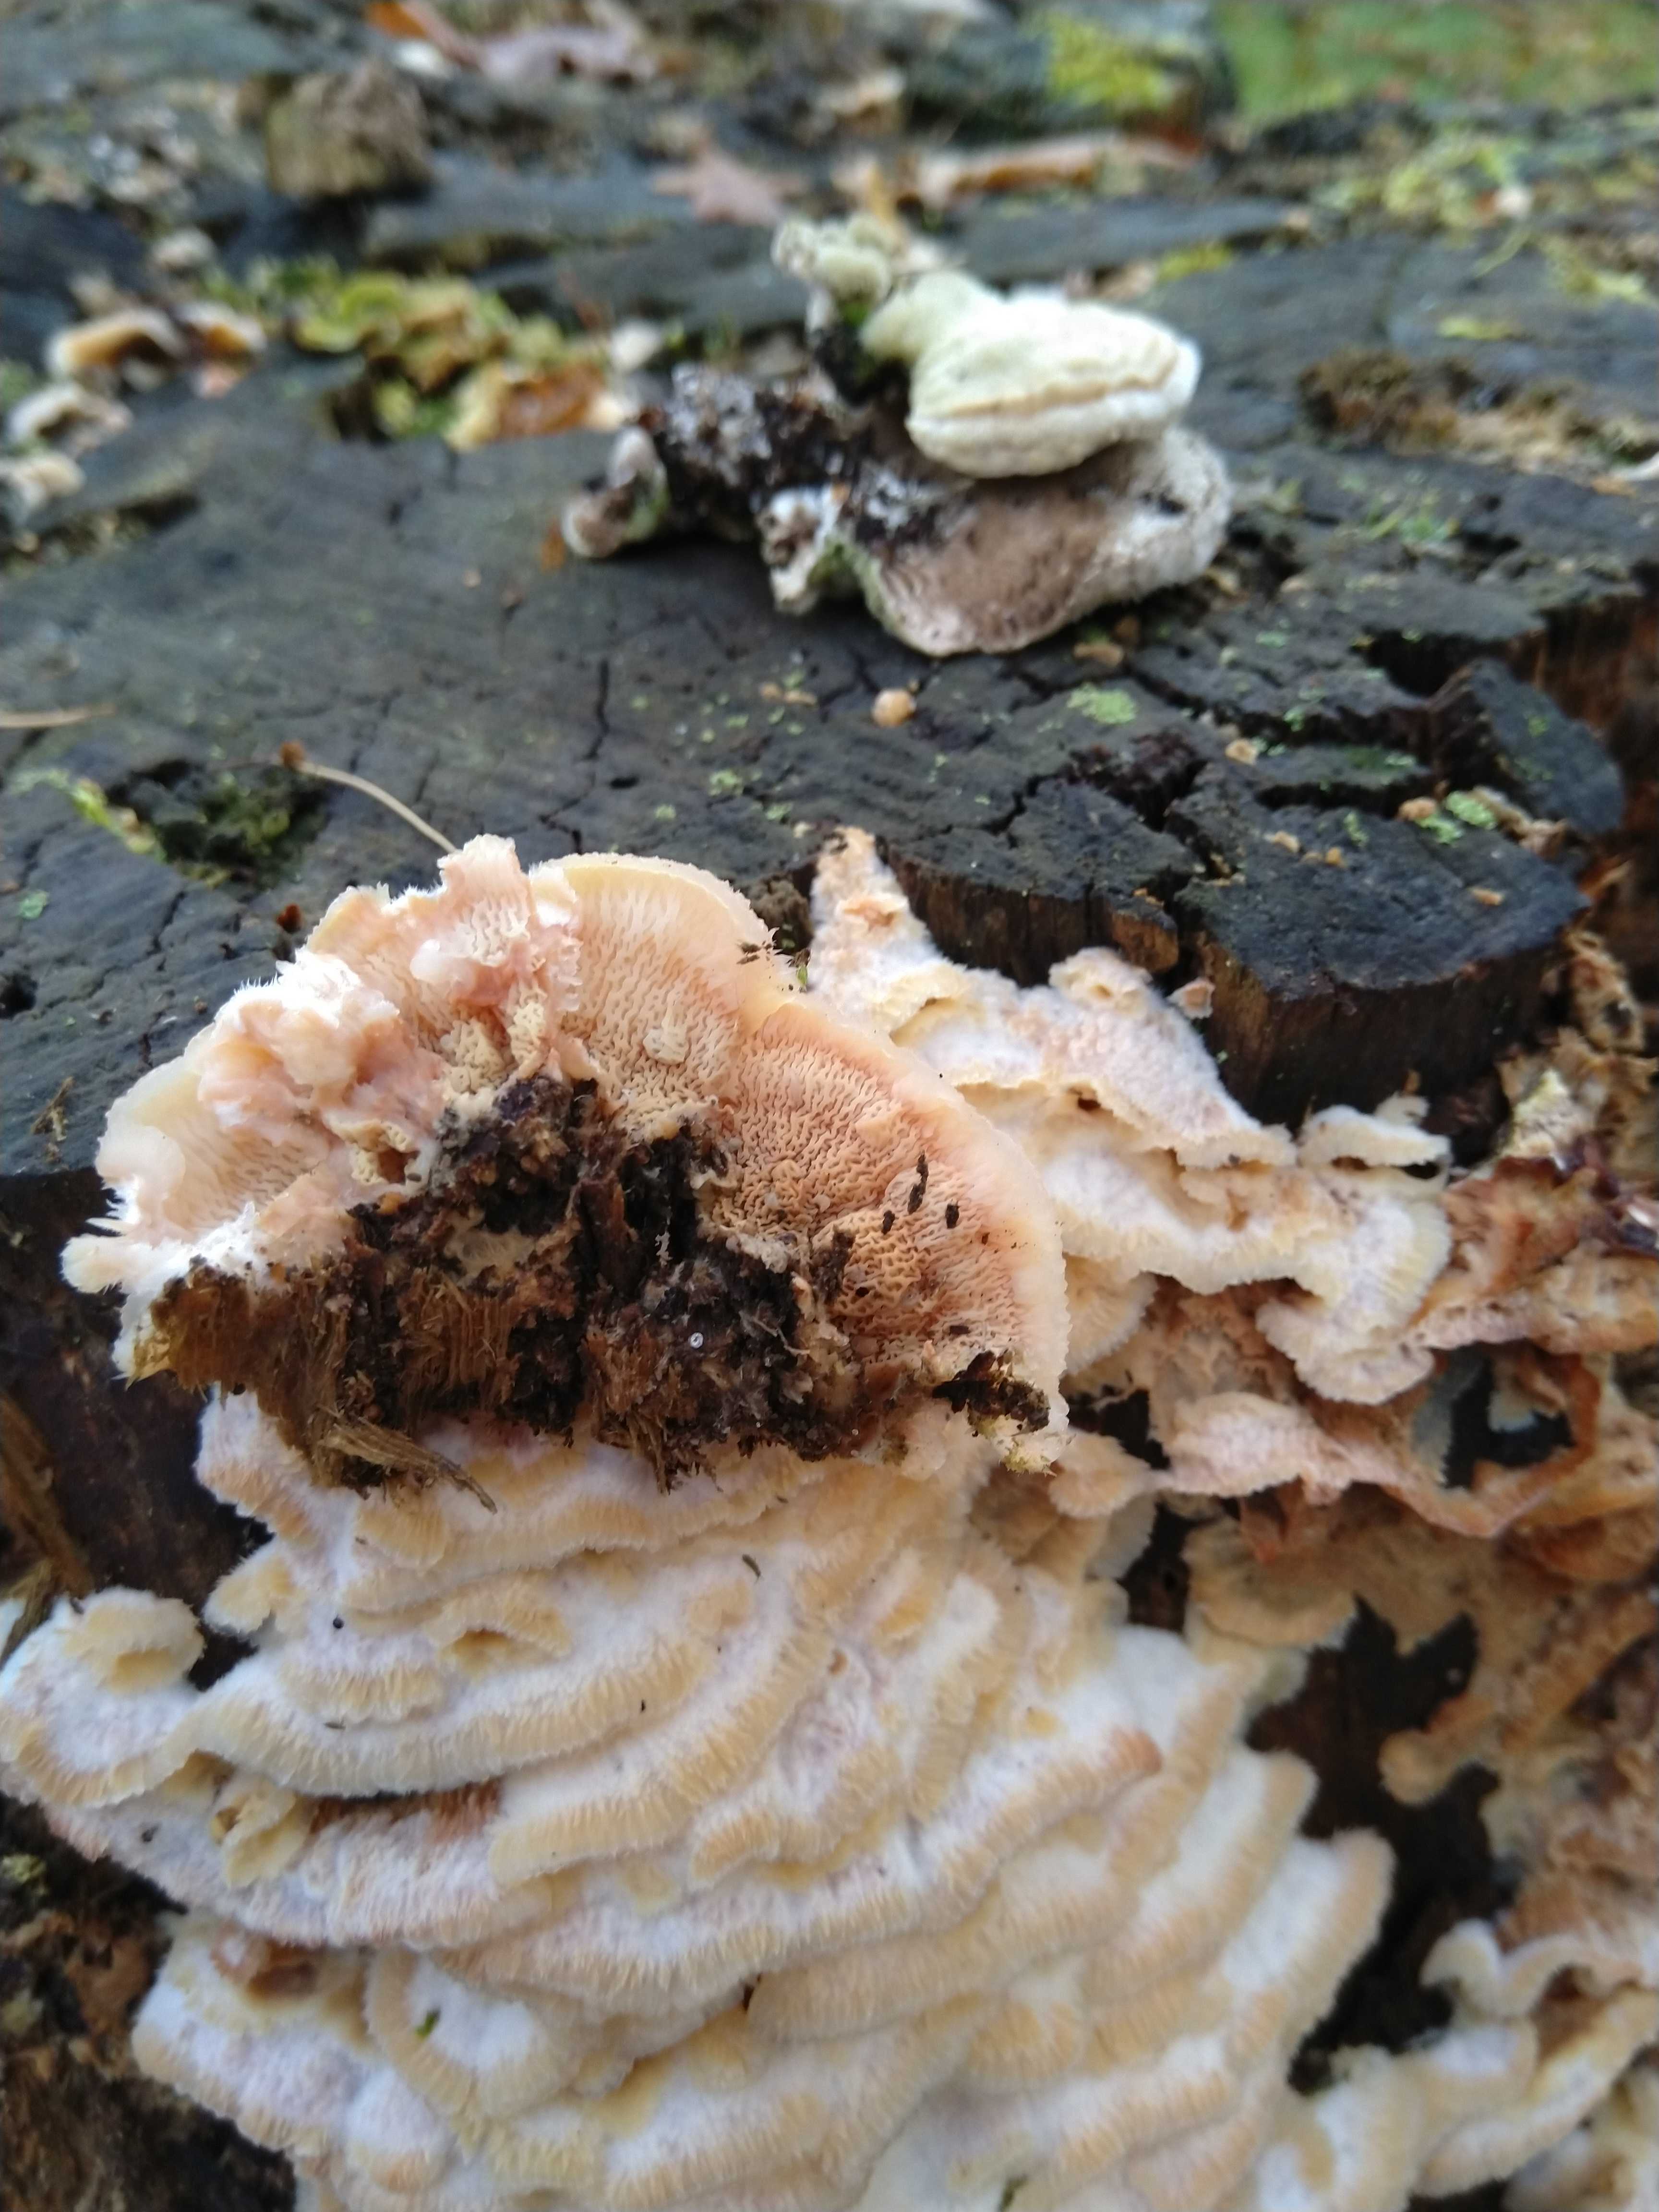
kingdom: Fungi
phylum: Basidiomycota
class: Agaricomycetes
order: Polyporales
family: Meruliaceae
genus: Phlebia
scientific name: Phlebia tremellosa
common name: bævrende åresvamp
